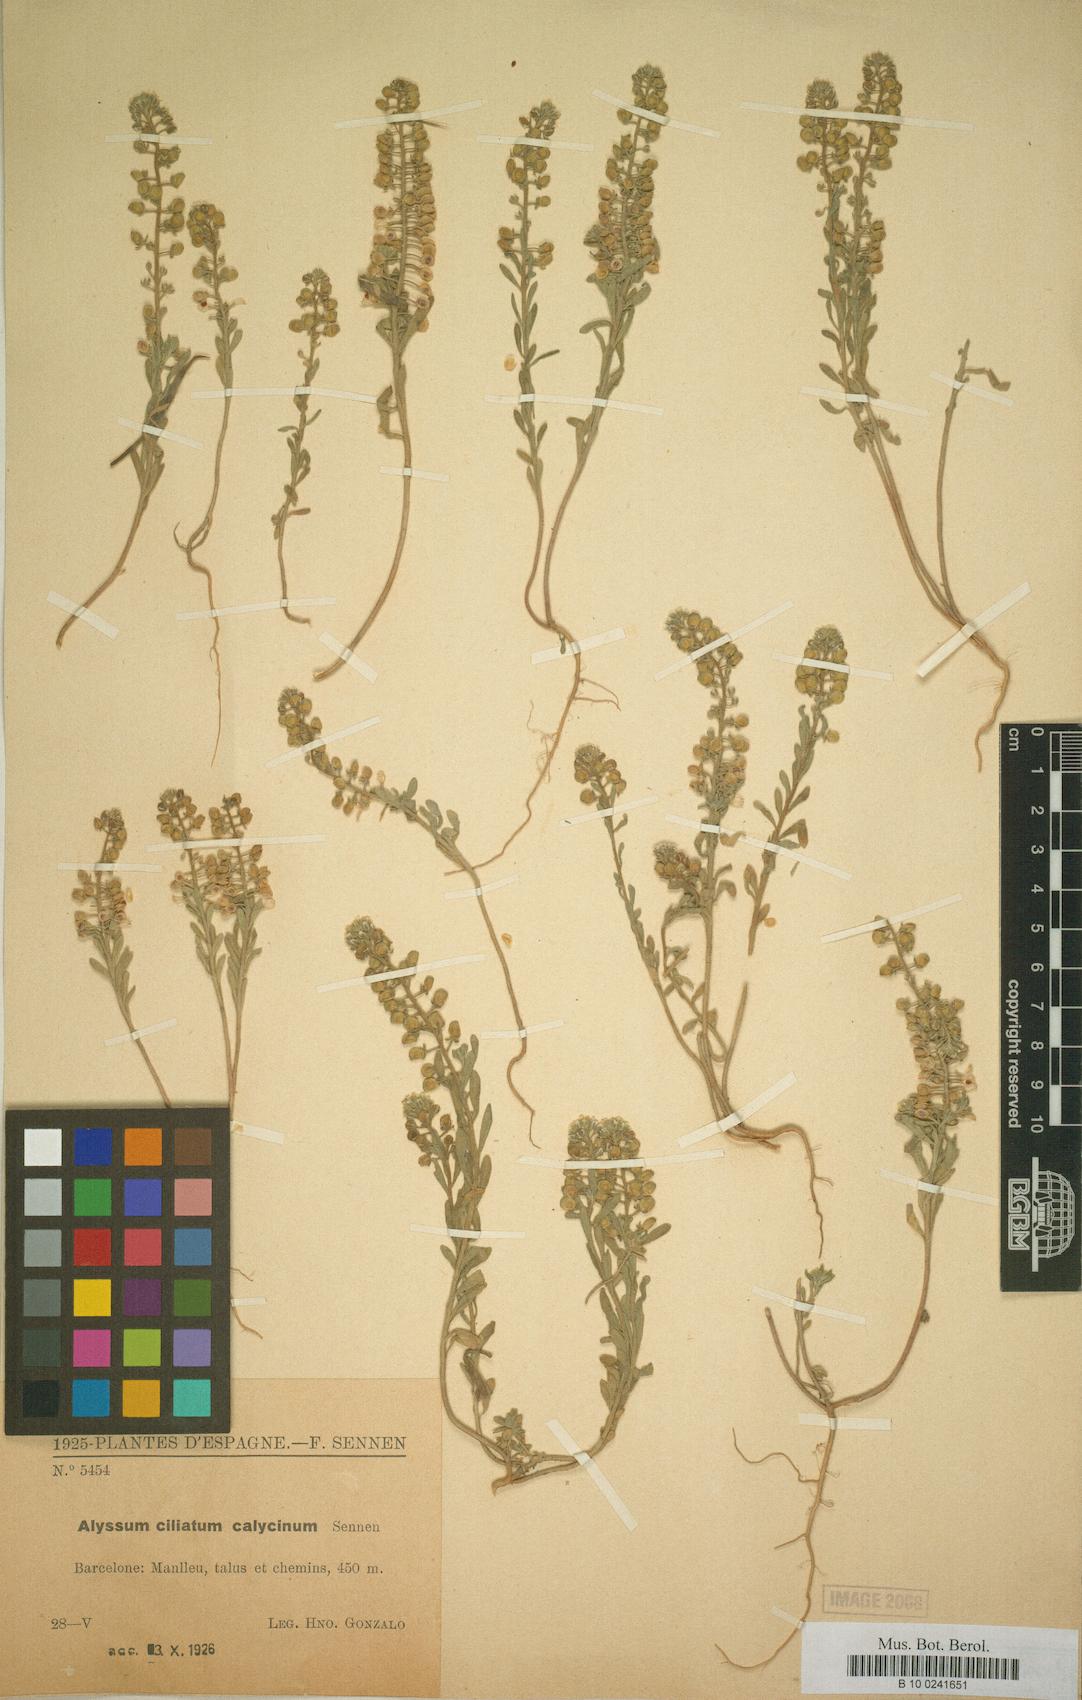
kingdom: Plantae
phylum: Tracheophyta
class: Magnoliopsida
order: Brassicales
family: Brassicaceae
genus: Draba
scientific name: Draba aizoides
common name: Yellow whitlowgrass
